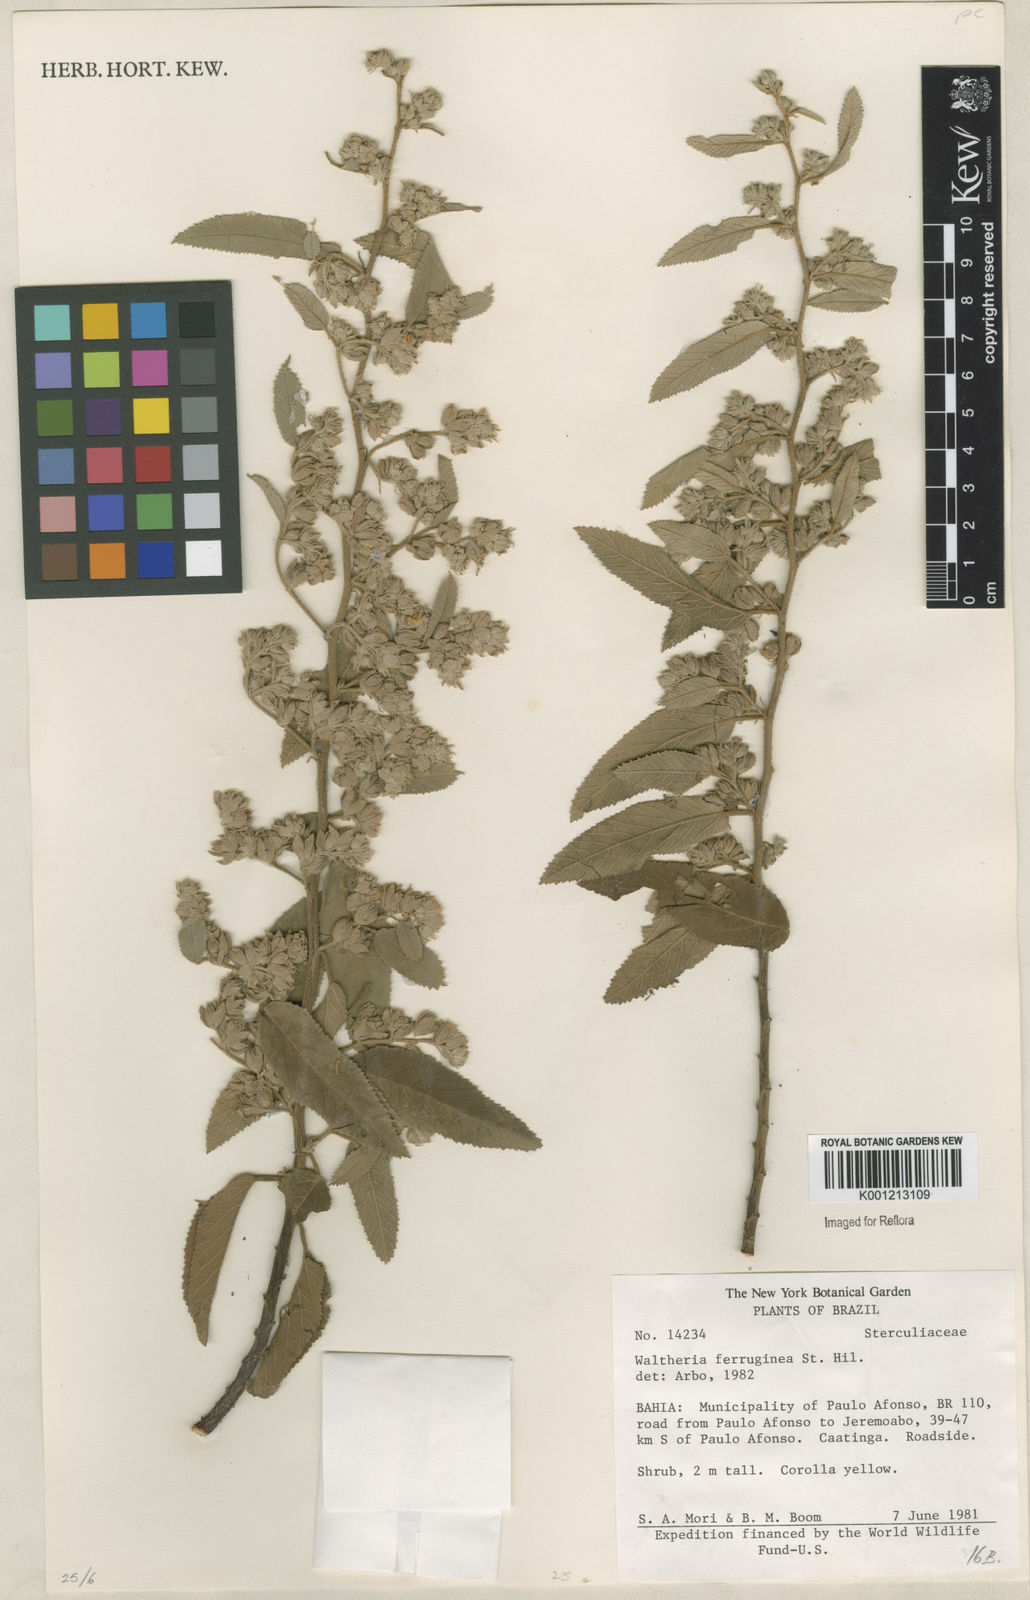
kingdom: Plantae
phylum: Tracheophyta
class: Magnoliopsida
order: Malvales
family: Malvaceae
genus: Waltheria
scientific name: Waltheria ferruginea
